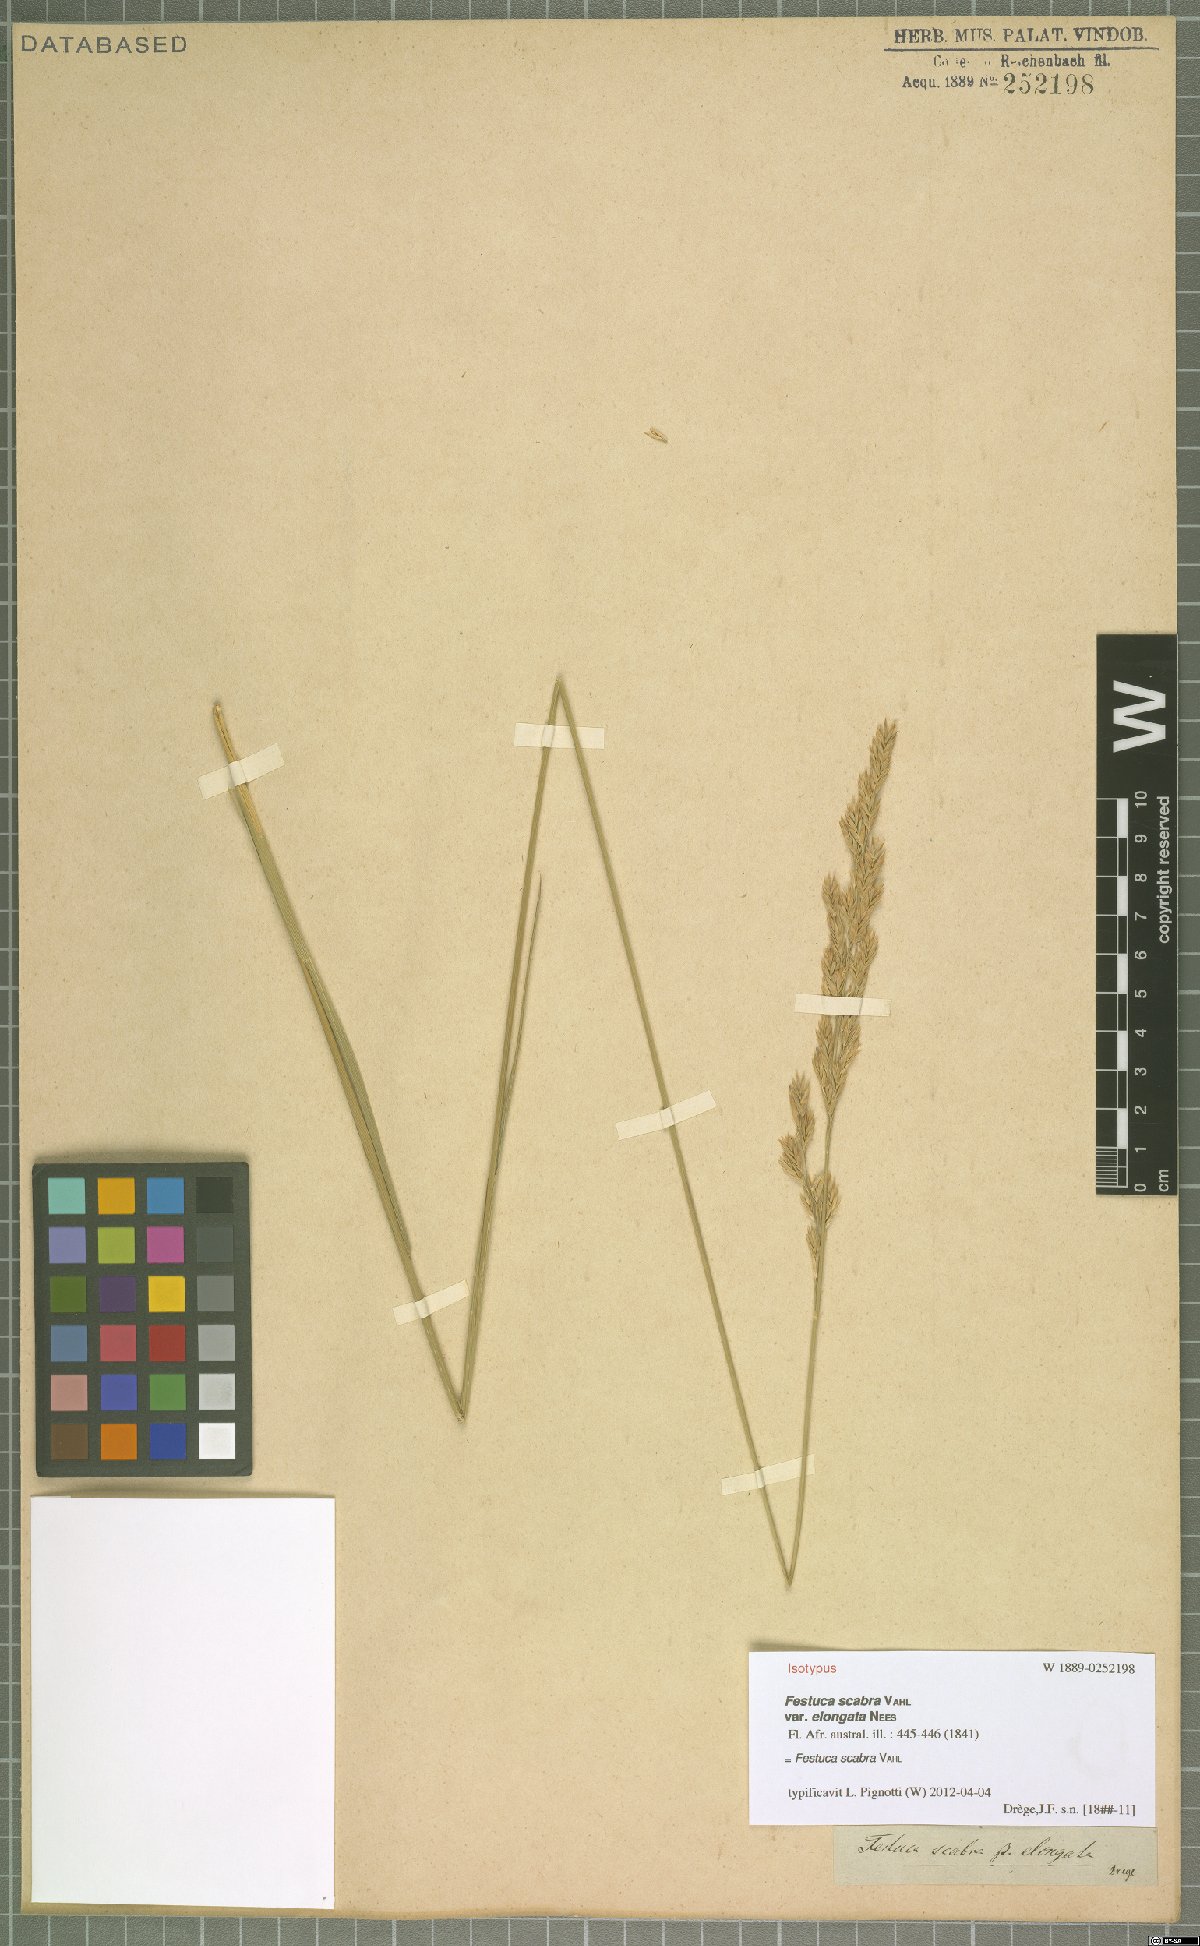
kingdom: Plantae
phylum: Tracheophyta
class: Liliopsida
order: Poales
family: Poaceae
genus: Festuca
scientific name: Festuca scabra
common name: Munnik fescue
